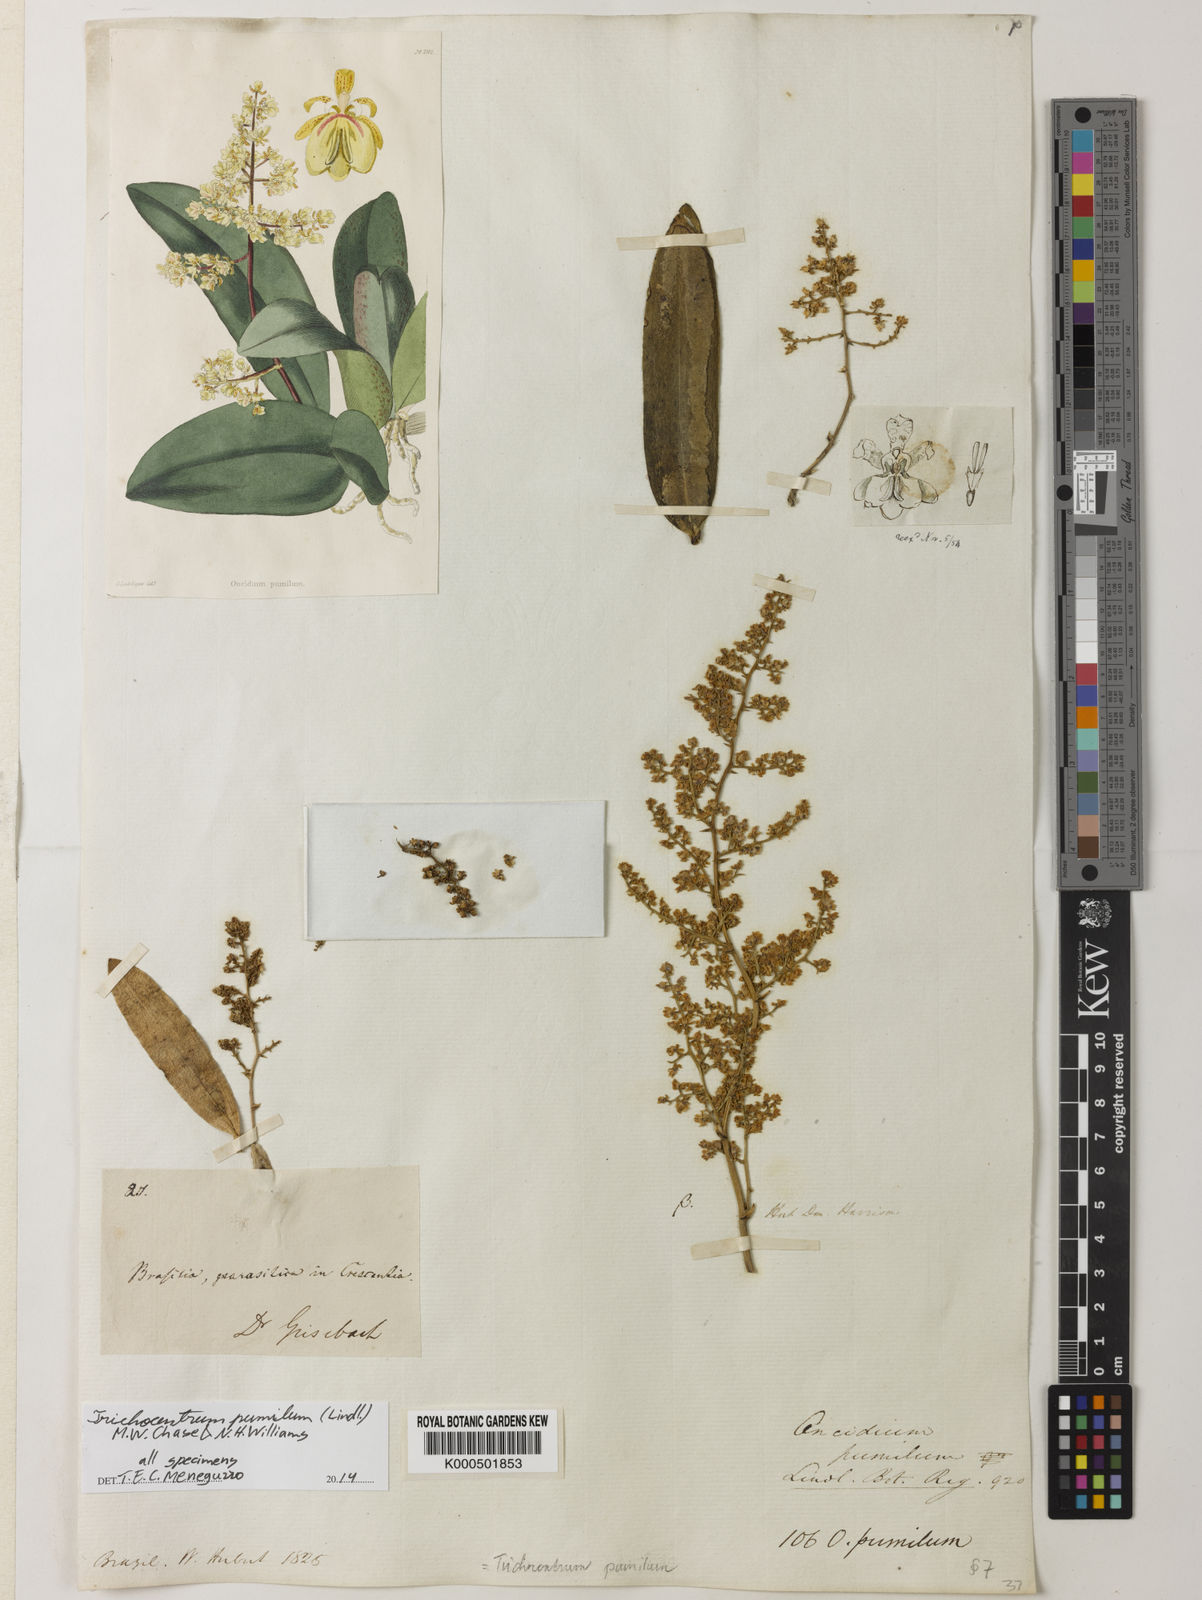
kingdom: Plantae
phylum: Tracheophyta
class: Liliopsida
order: Asparagales
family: Orchidaceae
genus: Trichocentrum
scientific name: Trichocentrum pumilum
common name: Mule-ear orchid
